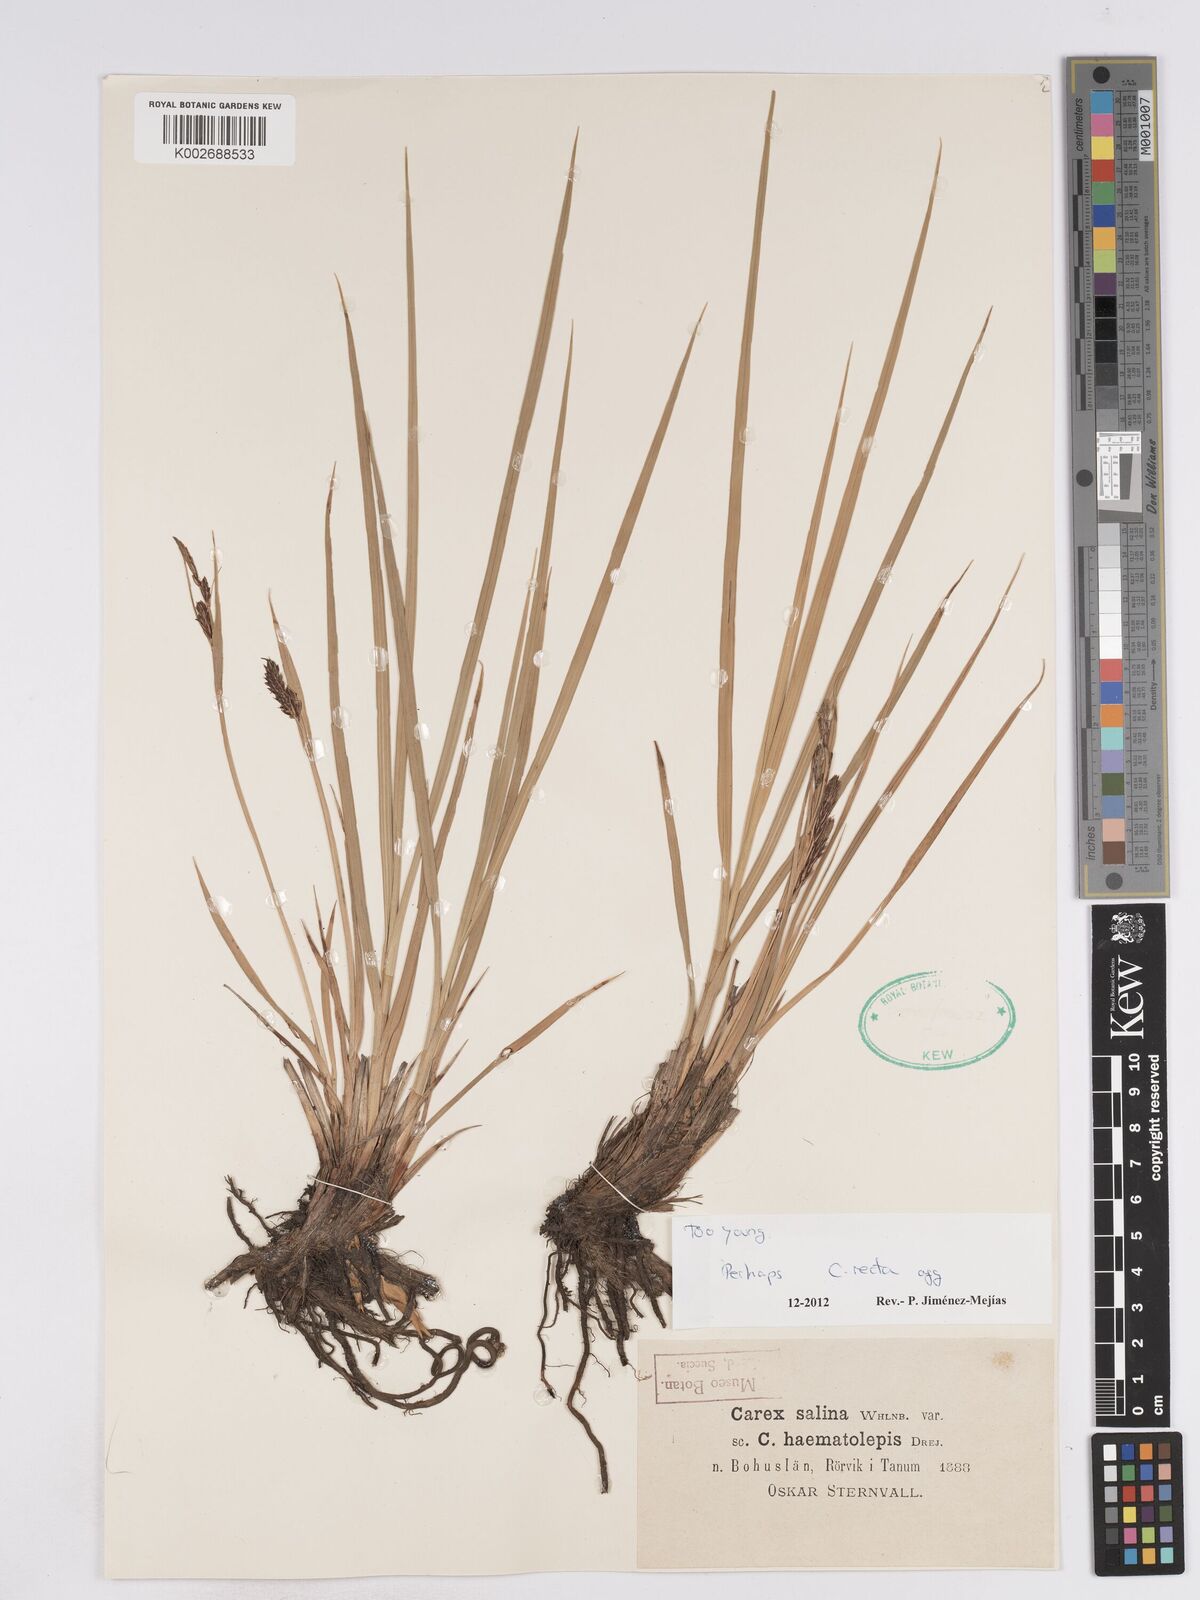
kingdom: Plantae
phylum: Tracheophyta
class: Liliopsida
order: Poales
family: Cyperaceae
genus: Carex
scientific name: Carex recta
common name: Estuarine sedge
